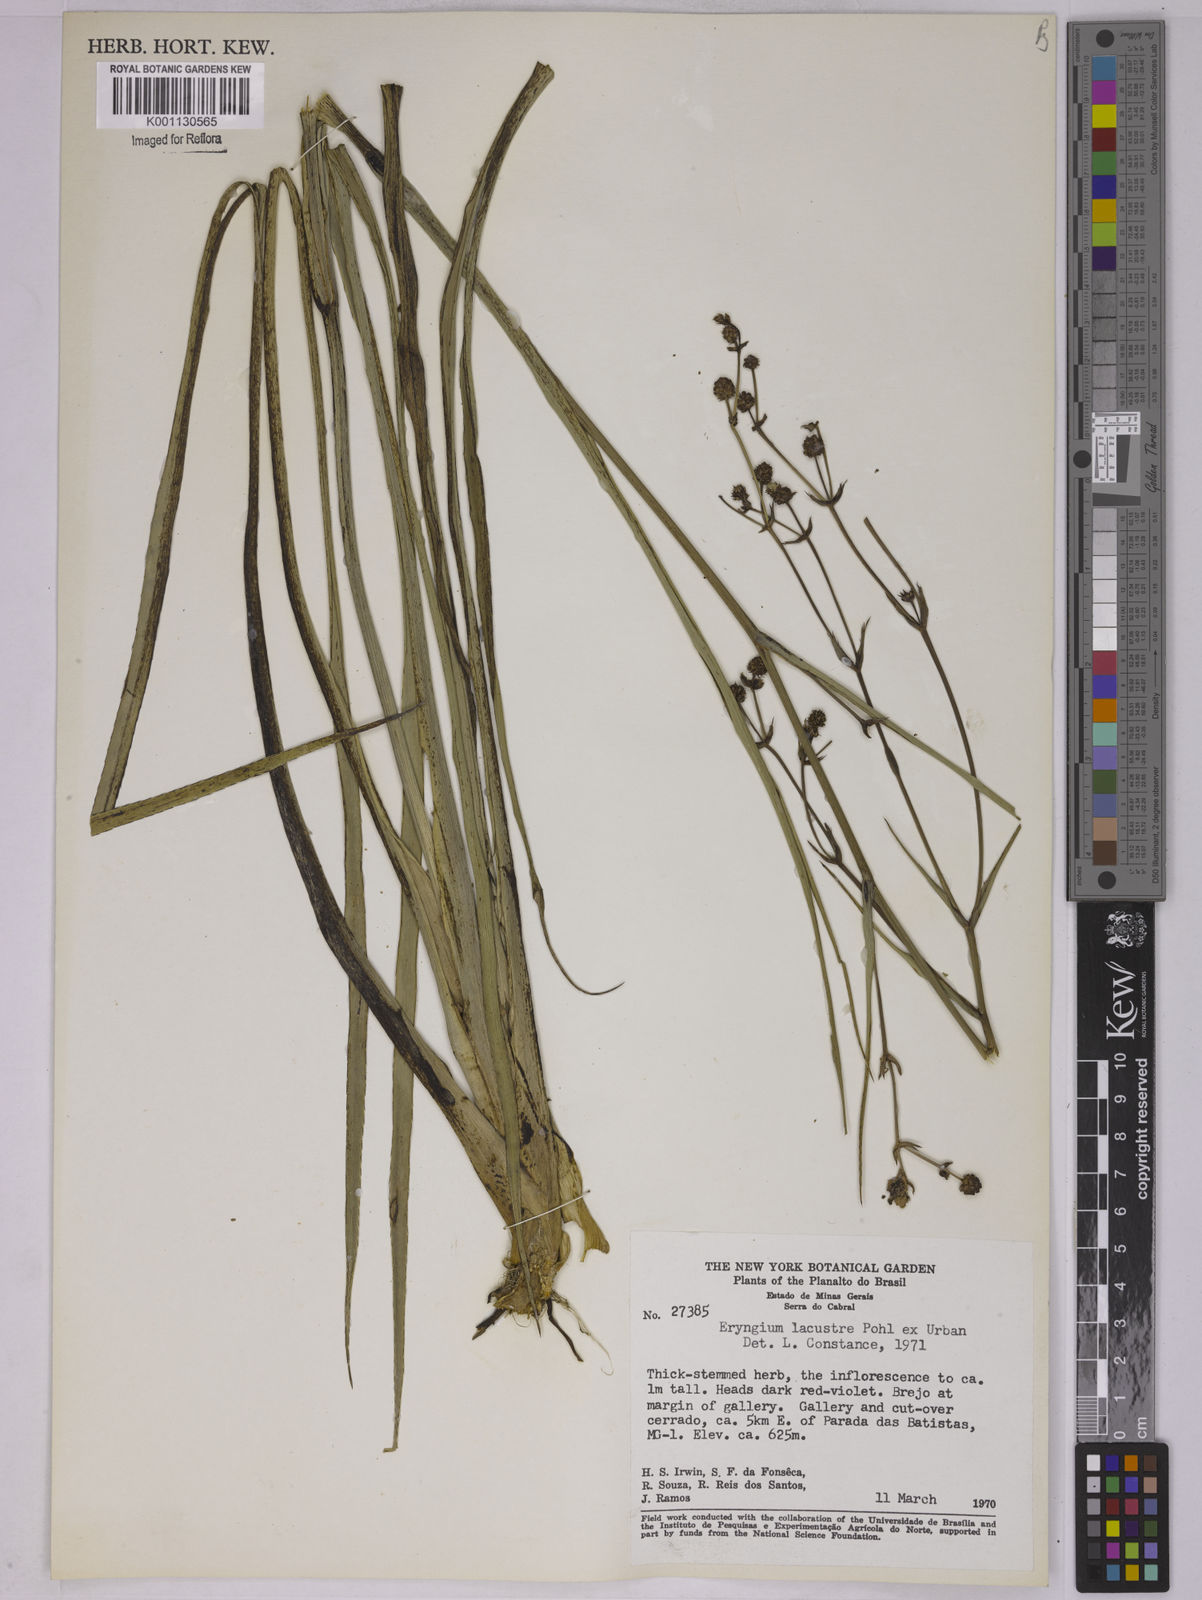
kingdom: Plantae
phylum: Tracheophyta
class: Magnoliopsida
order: Apiales
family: Apiaceae
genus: Eryngium
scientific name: Eryngium lacustre
